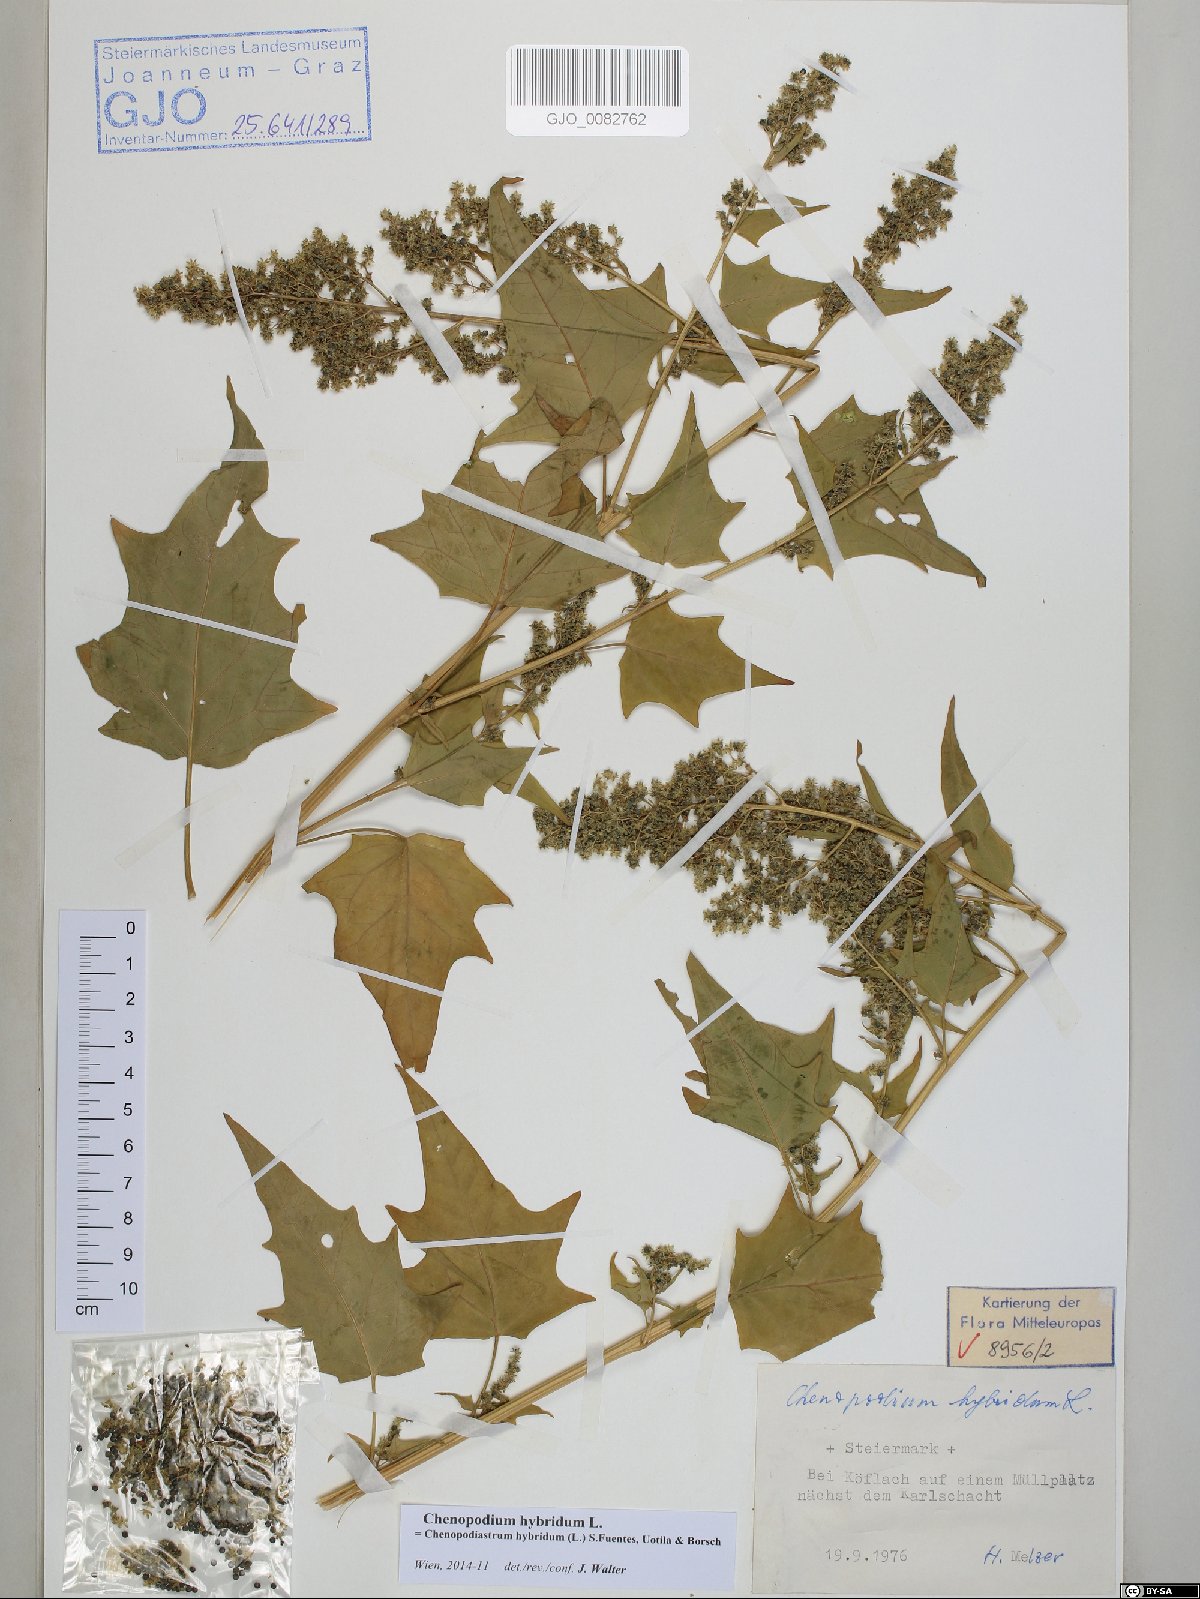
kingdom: Plantae
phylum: Tracheophyta
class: Magnoliopsida
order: Caryophyllales
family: Amaranthaceae
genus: Chenopodiastrum
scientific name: Chenopodiastrum hybridum
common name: Mapleleaf goosefoot
